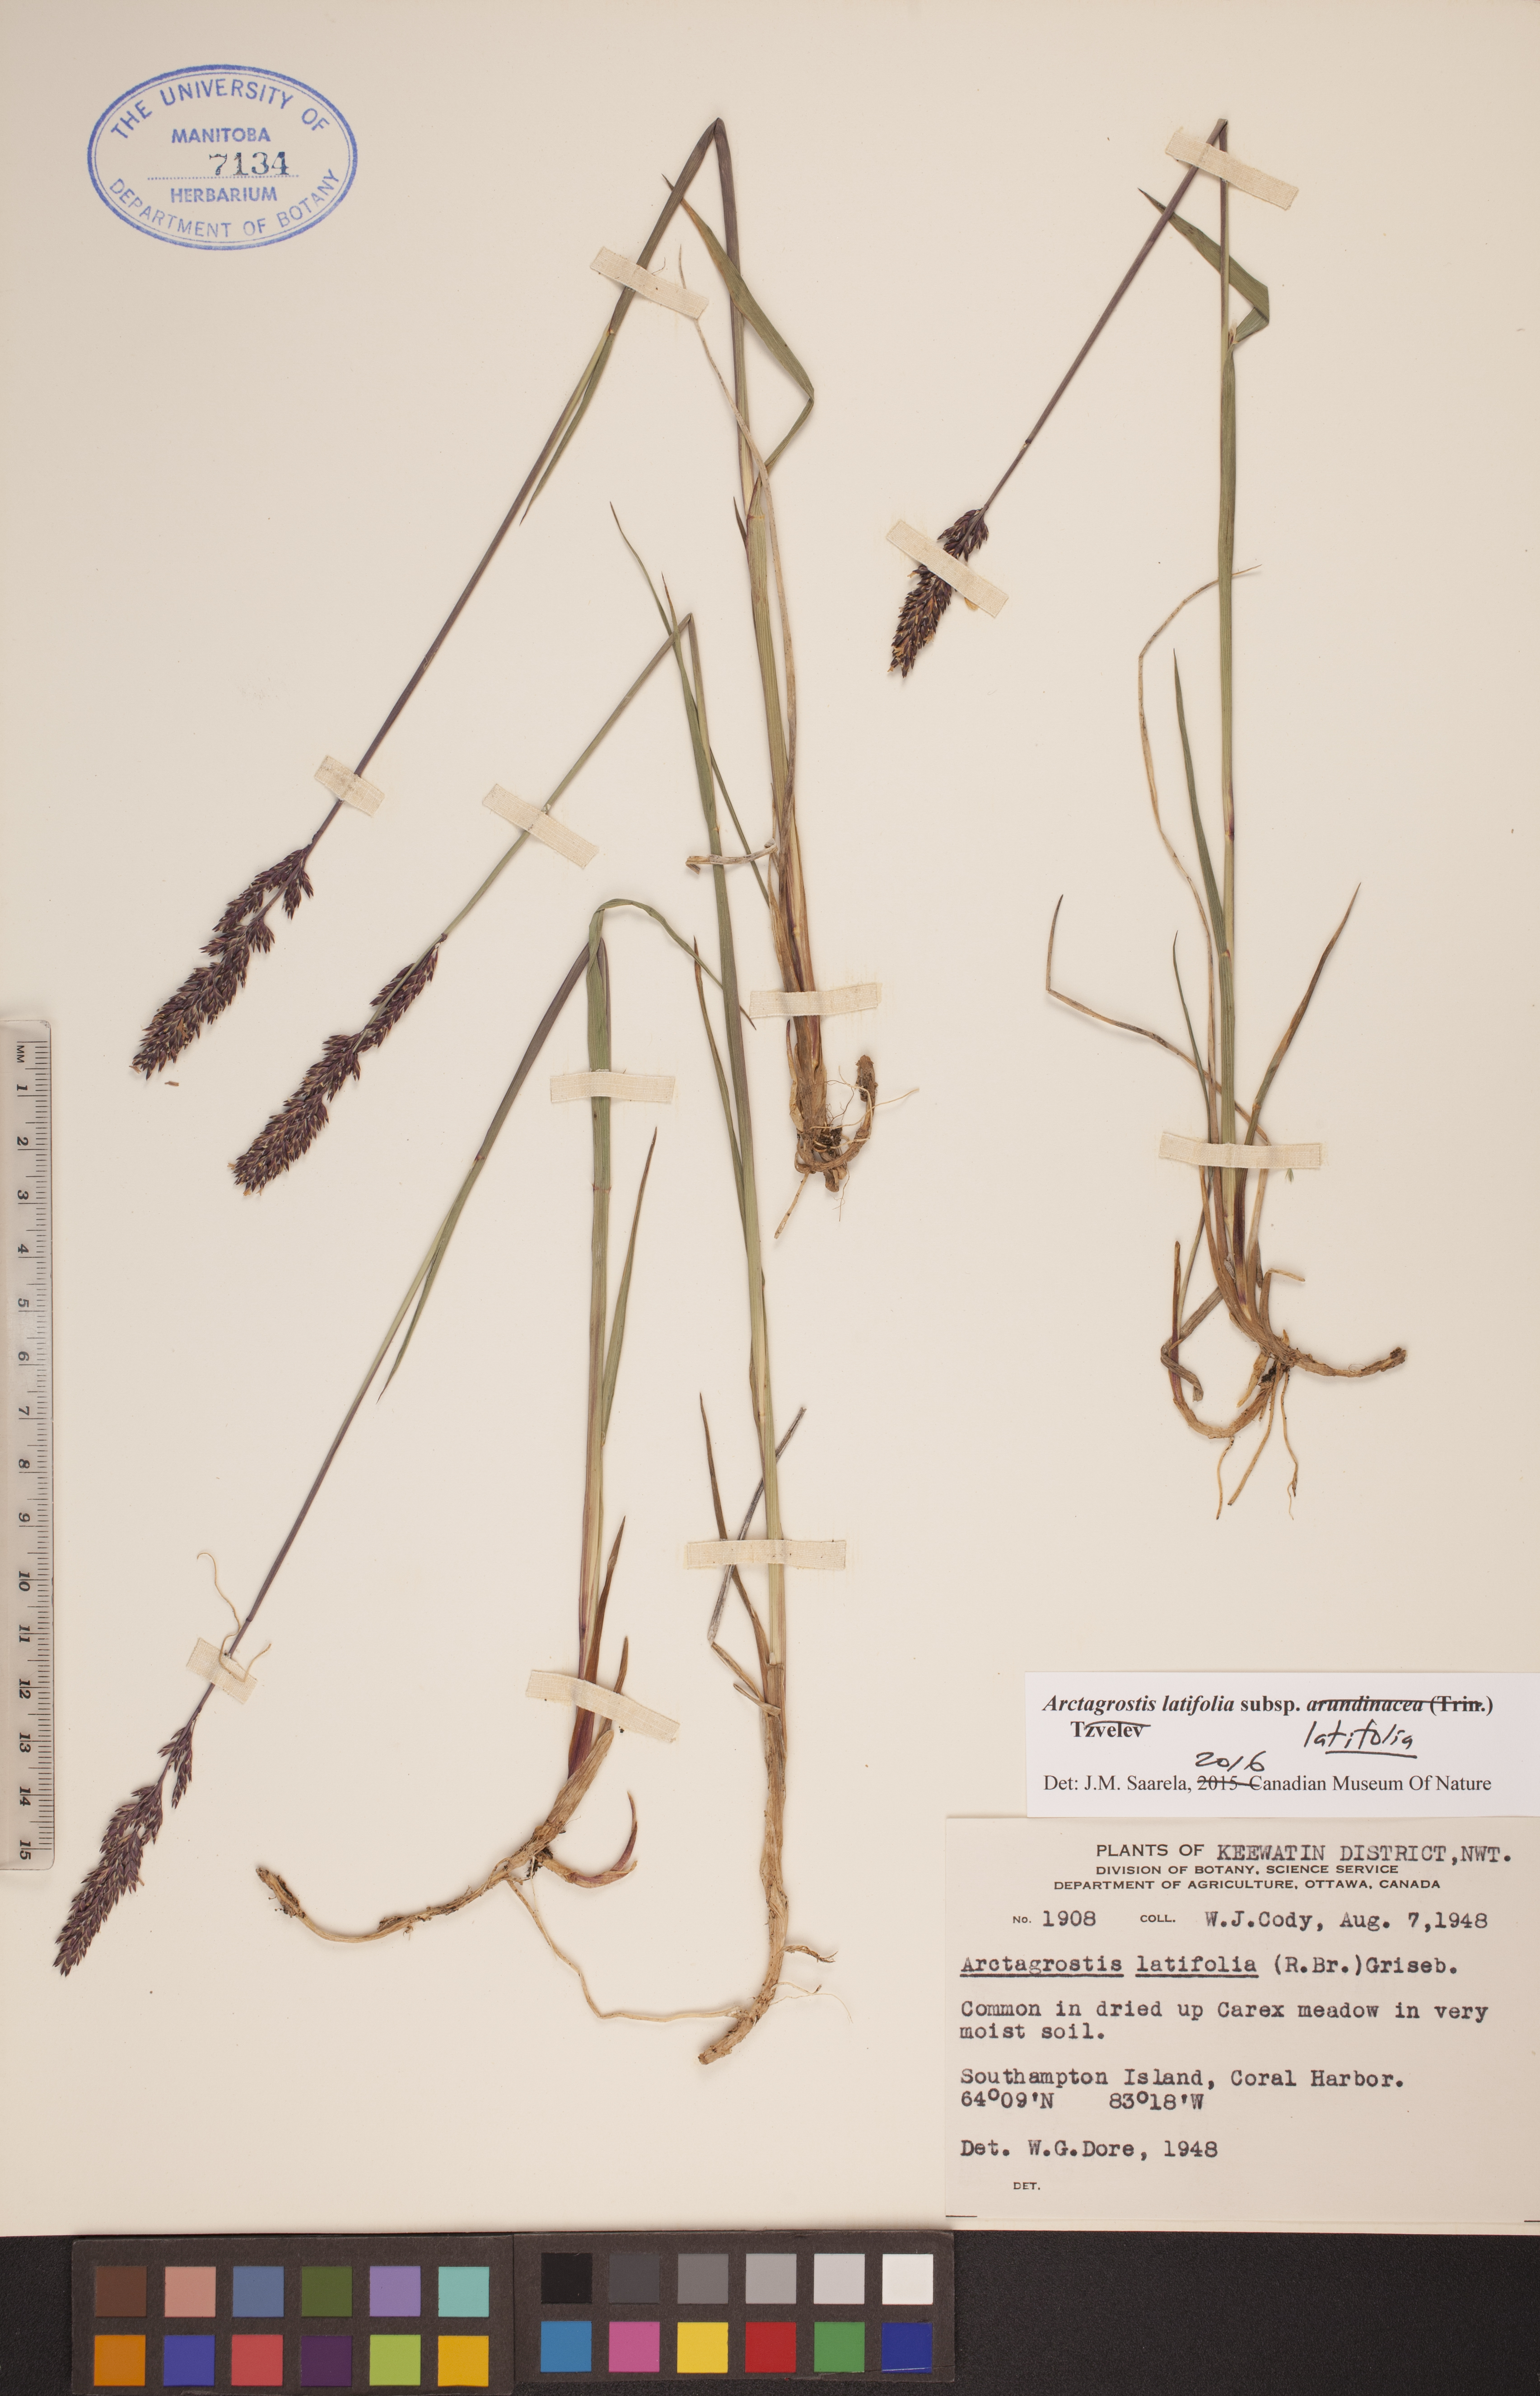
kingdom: Plantae
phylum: Tracheophyta
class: Liliopsida
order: Poales
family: Poaceae
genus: Arctagrostis
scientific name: Arctagrostis latifolia
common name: Arctic grass
